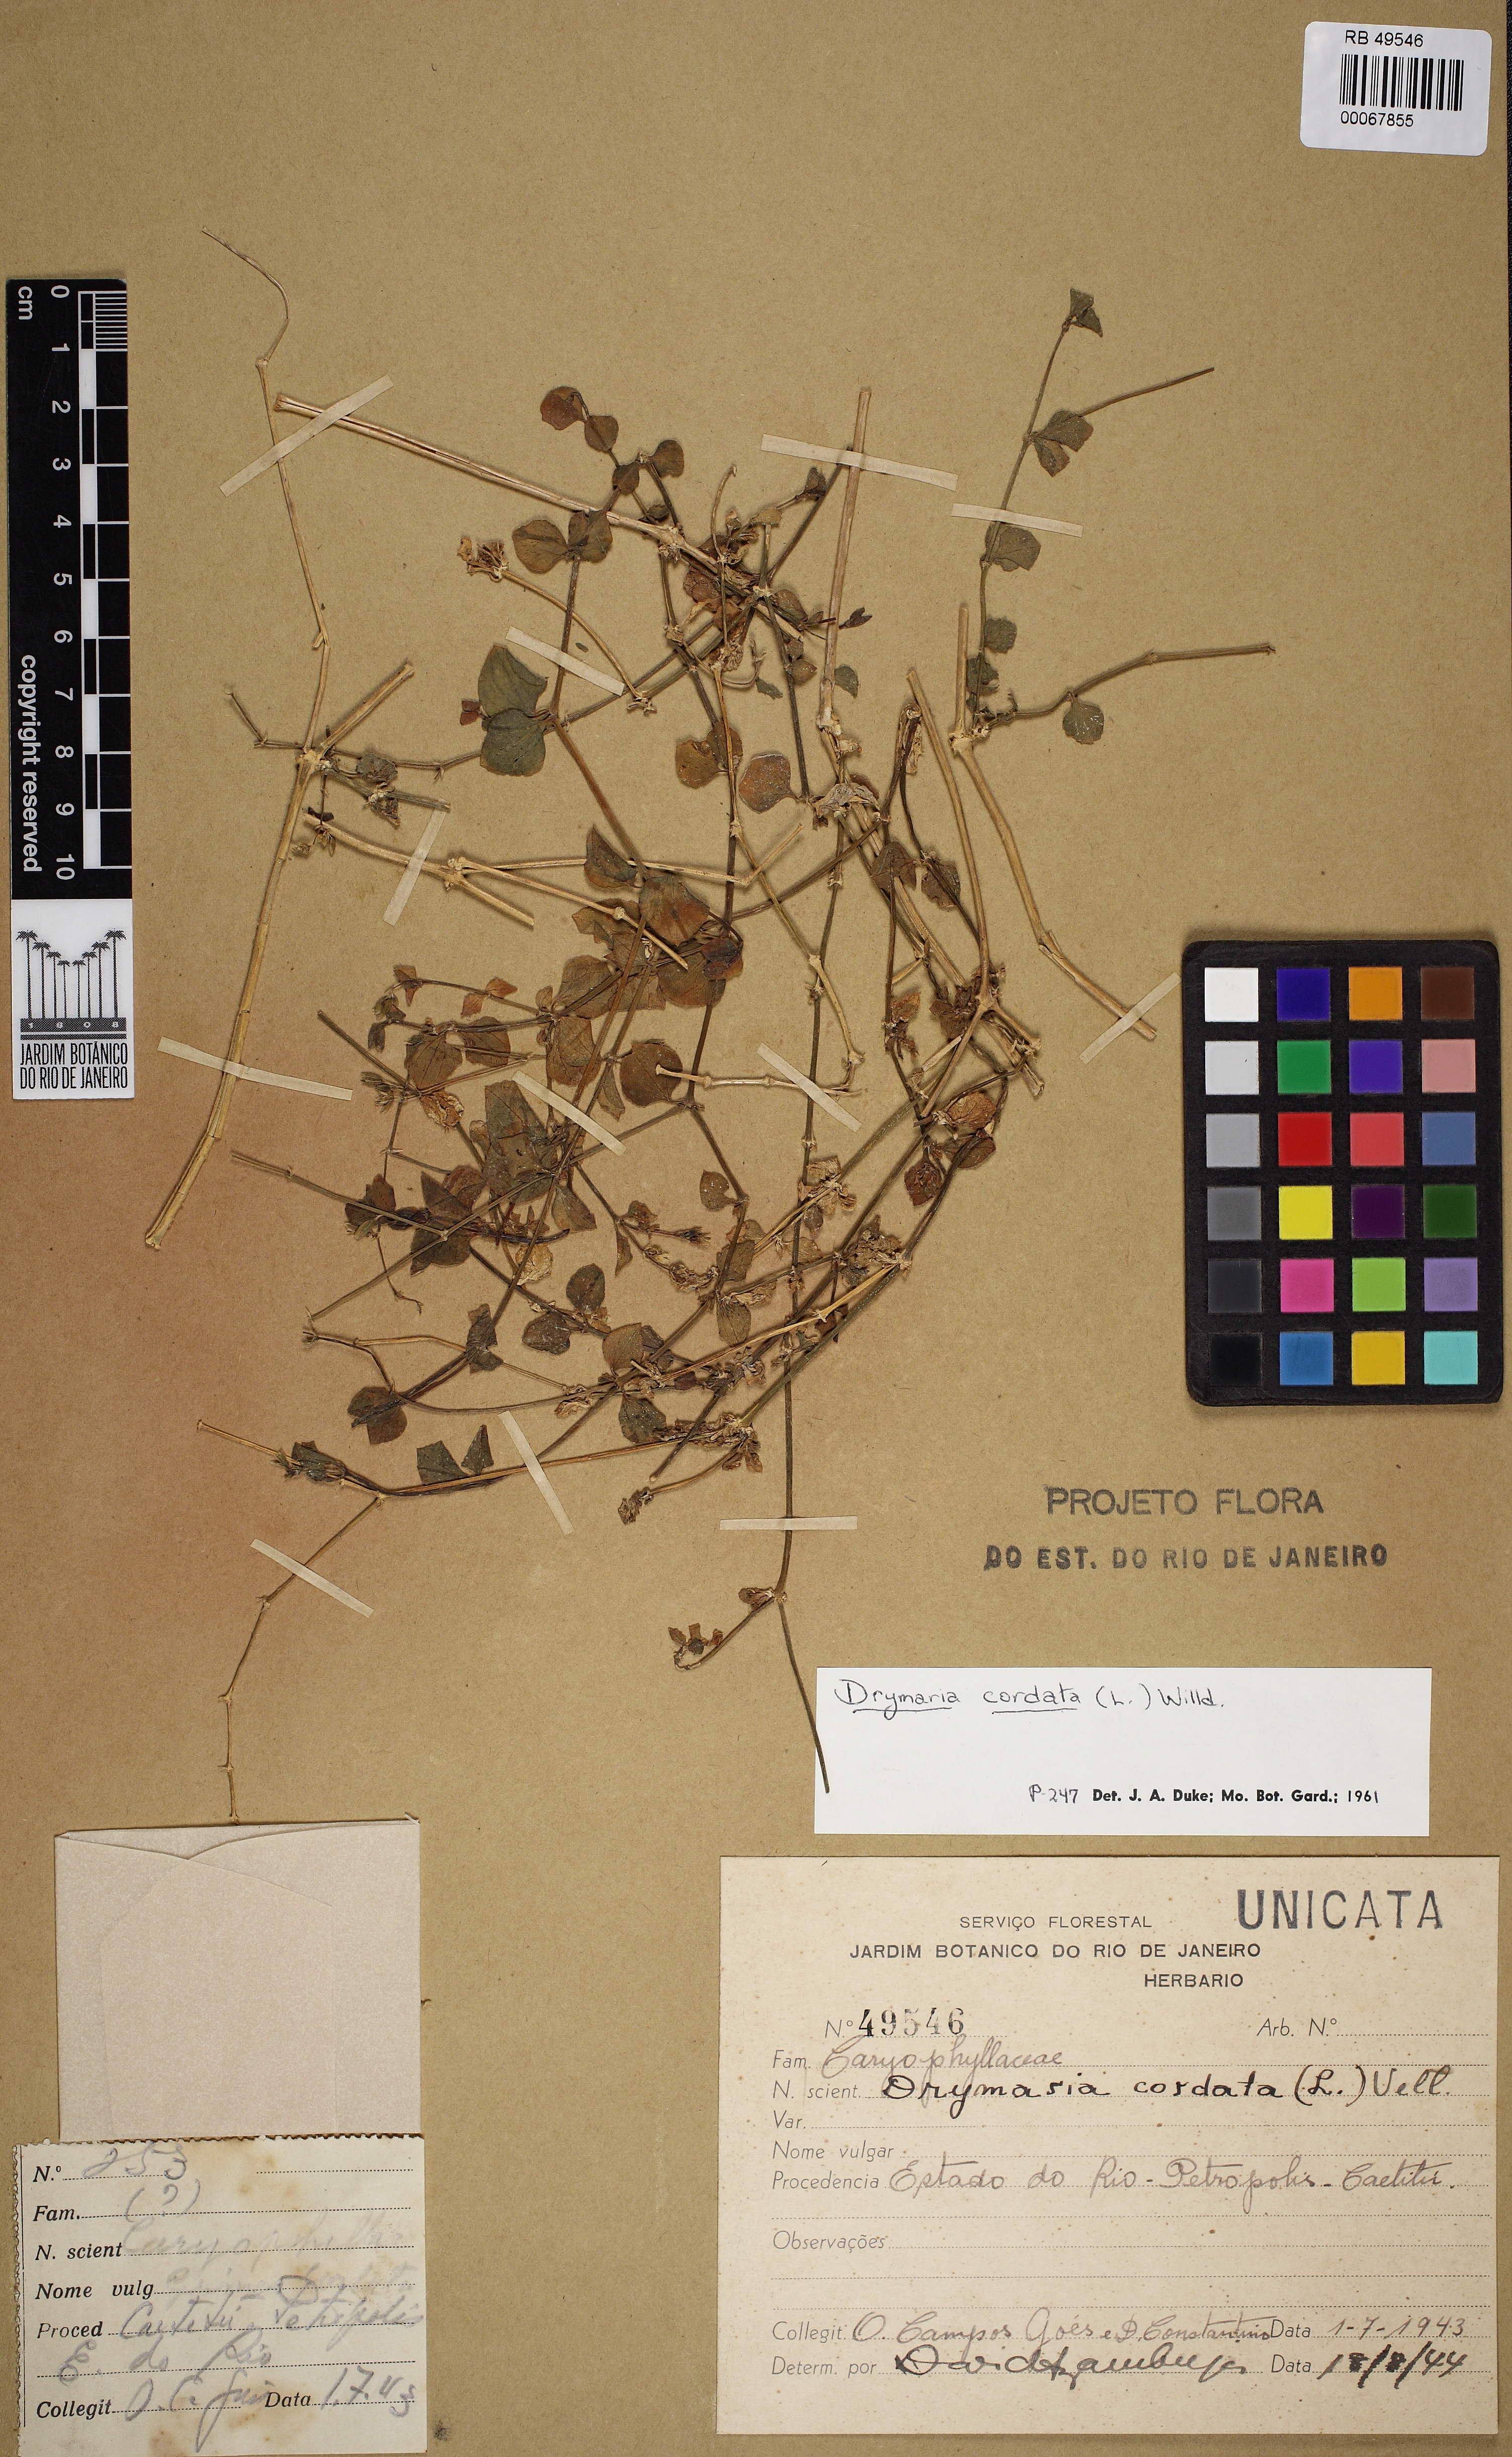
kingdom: Plantae
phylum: Tracheophyta
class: Magnoliopsida
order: Caryophyllales
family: Caryophyllaceae
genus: Drymaria
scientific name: Drymaria cordata
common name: Whitesnow
